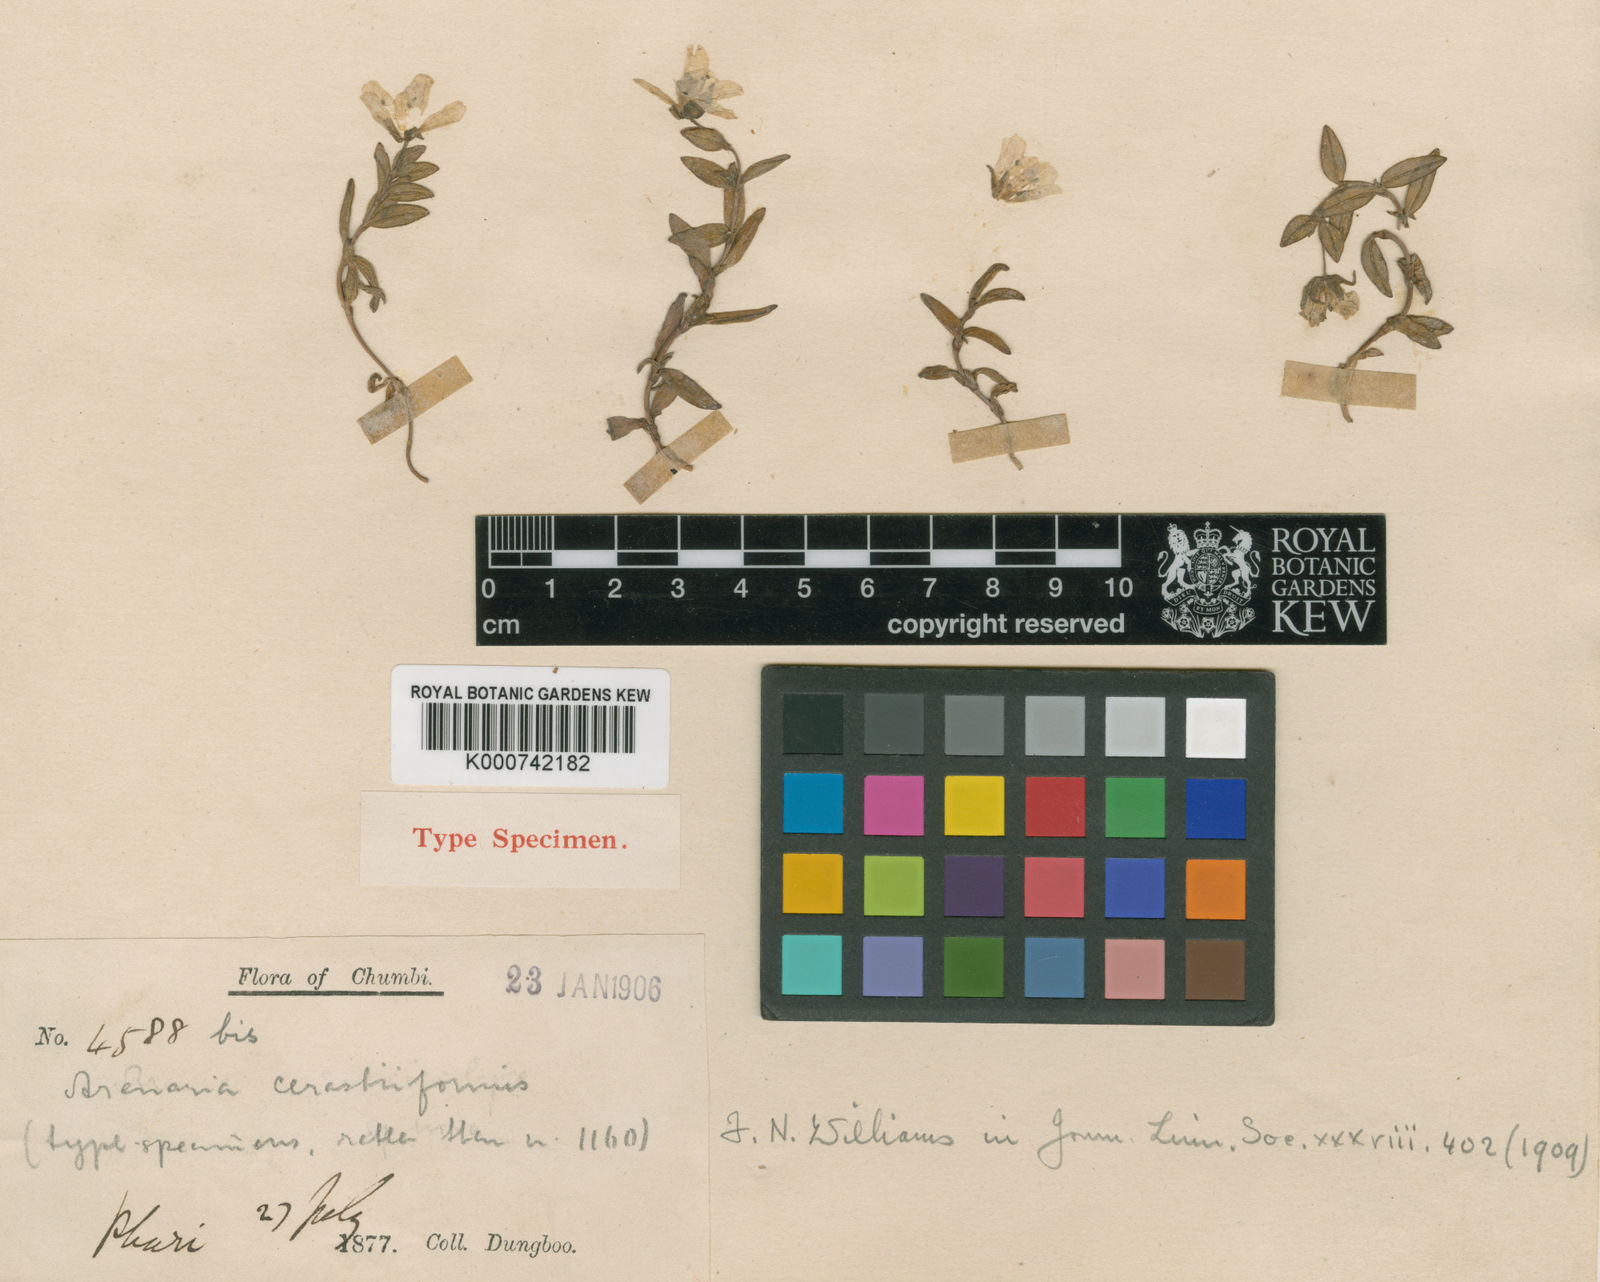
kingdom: Plantae
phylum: Tracheophyta
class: Magnoliopsida
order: Caryophyllales
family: Caryophyllaceae
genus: Shivparvatia
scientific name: Shivparvatia melandryoides
